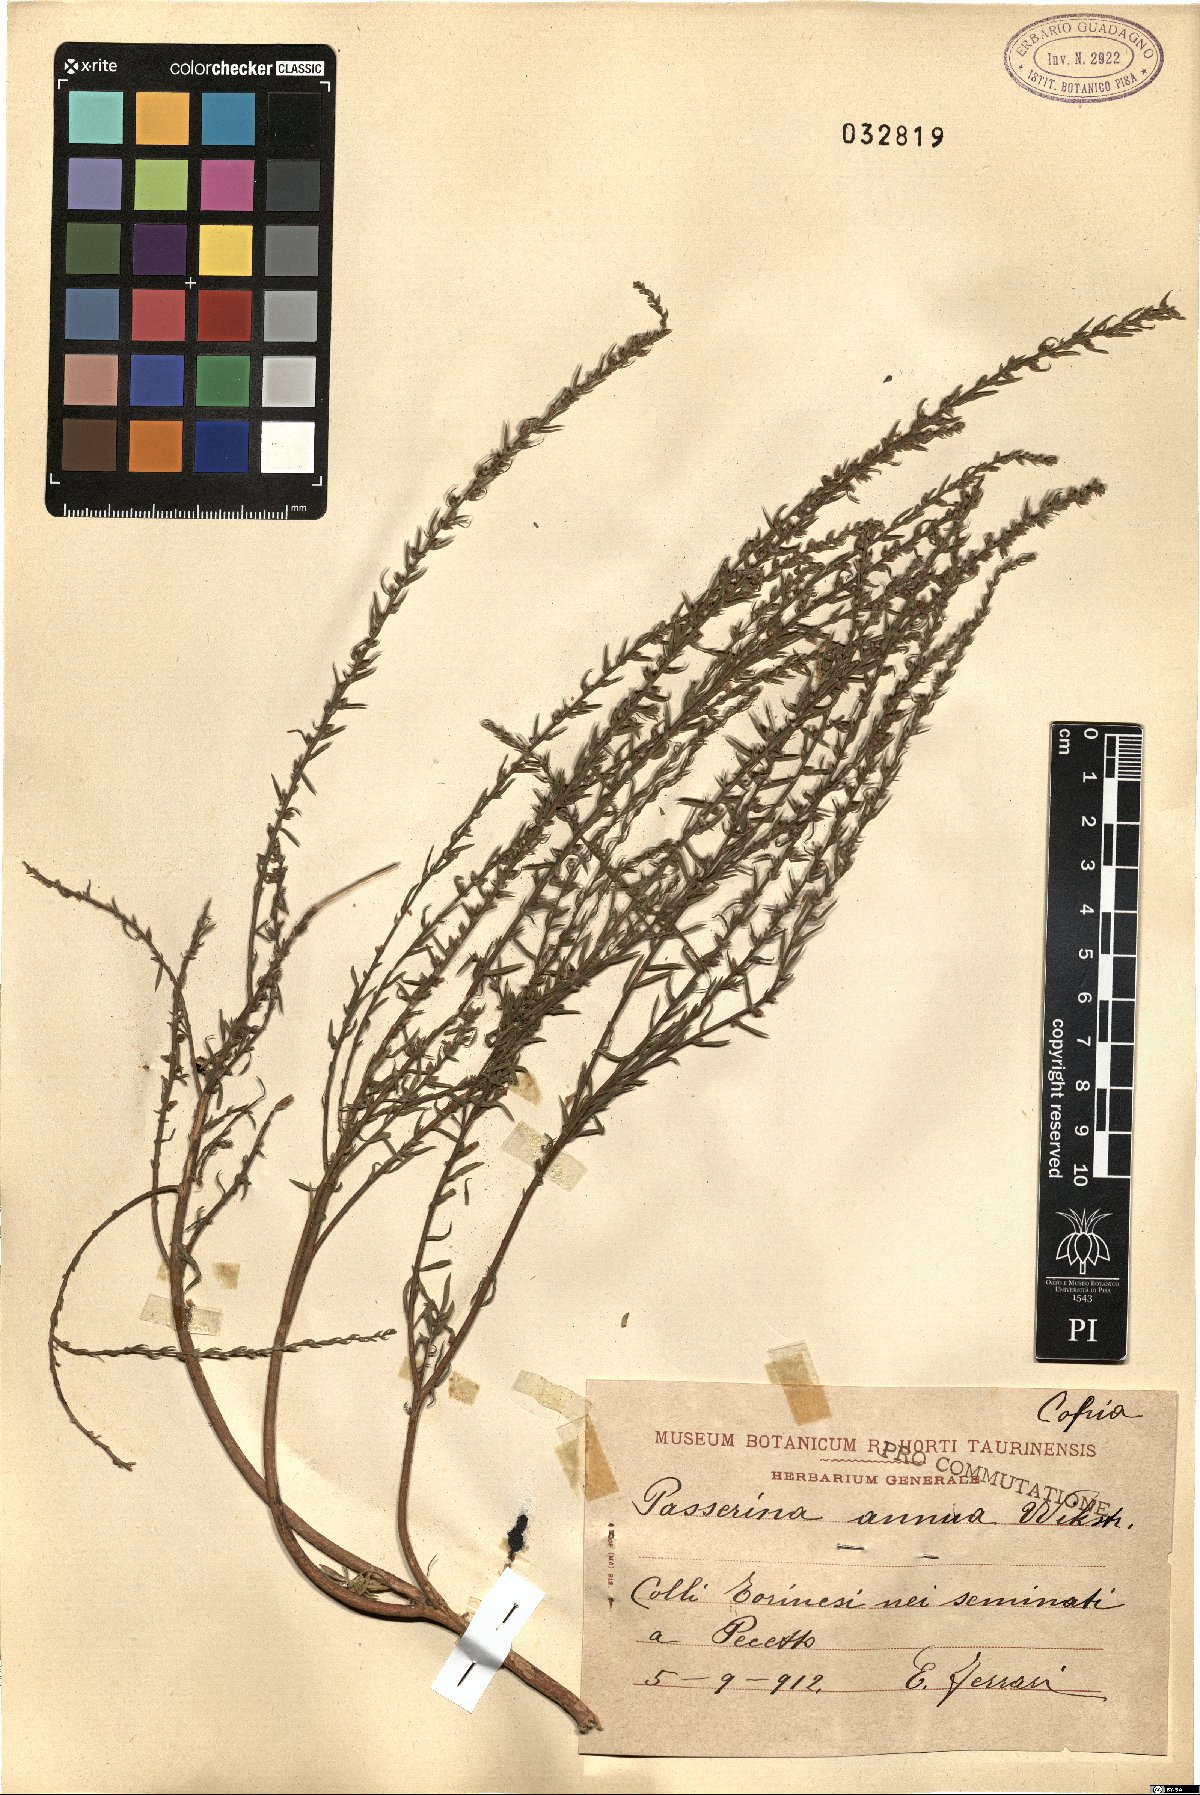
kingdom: Plantae
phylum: Tracheophyta
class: Magnoliopsida
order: Malvales
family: Thymelaeaceae
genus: Thymelaea
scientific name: Thymelaea passerina
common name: Annual thymelaea
